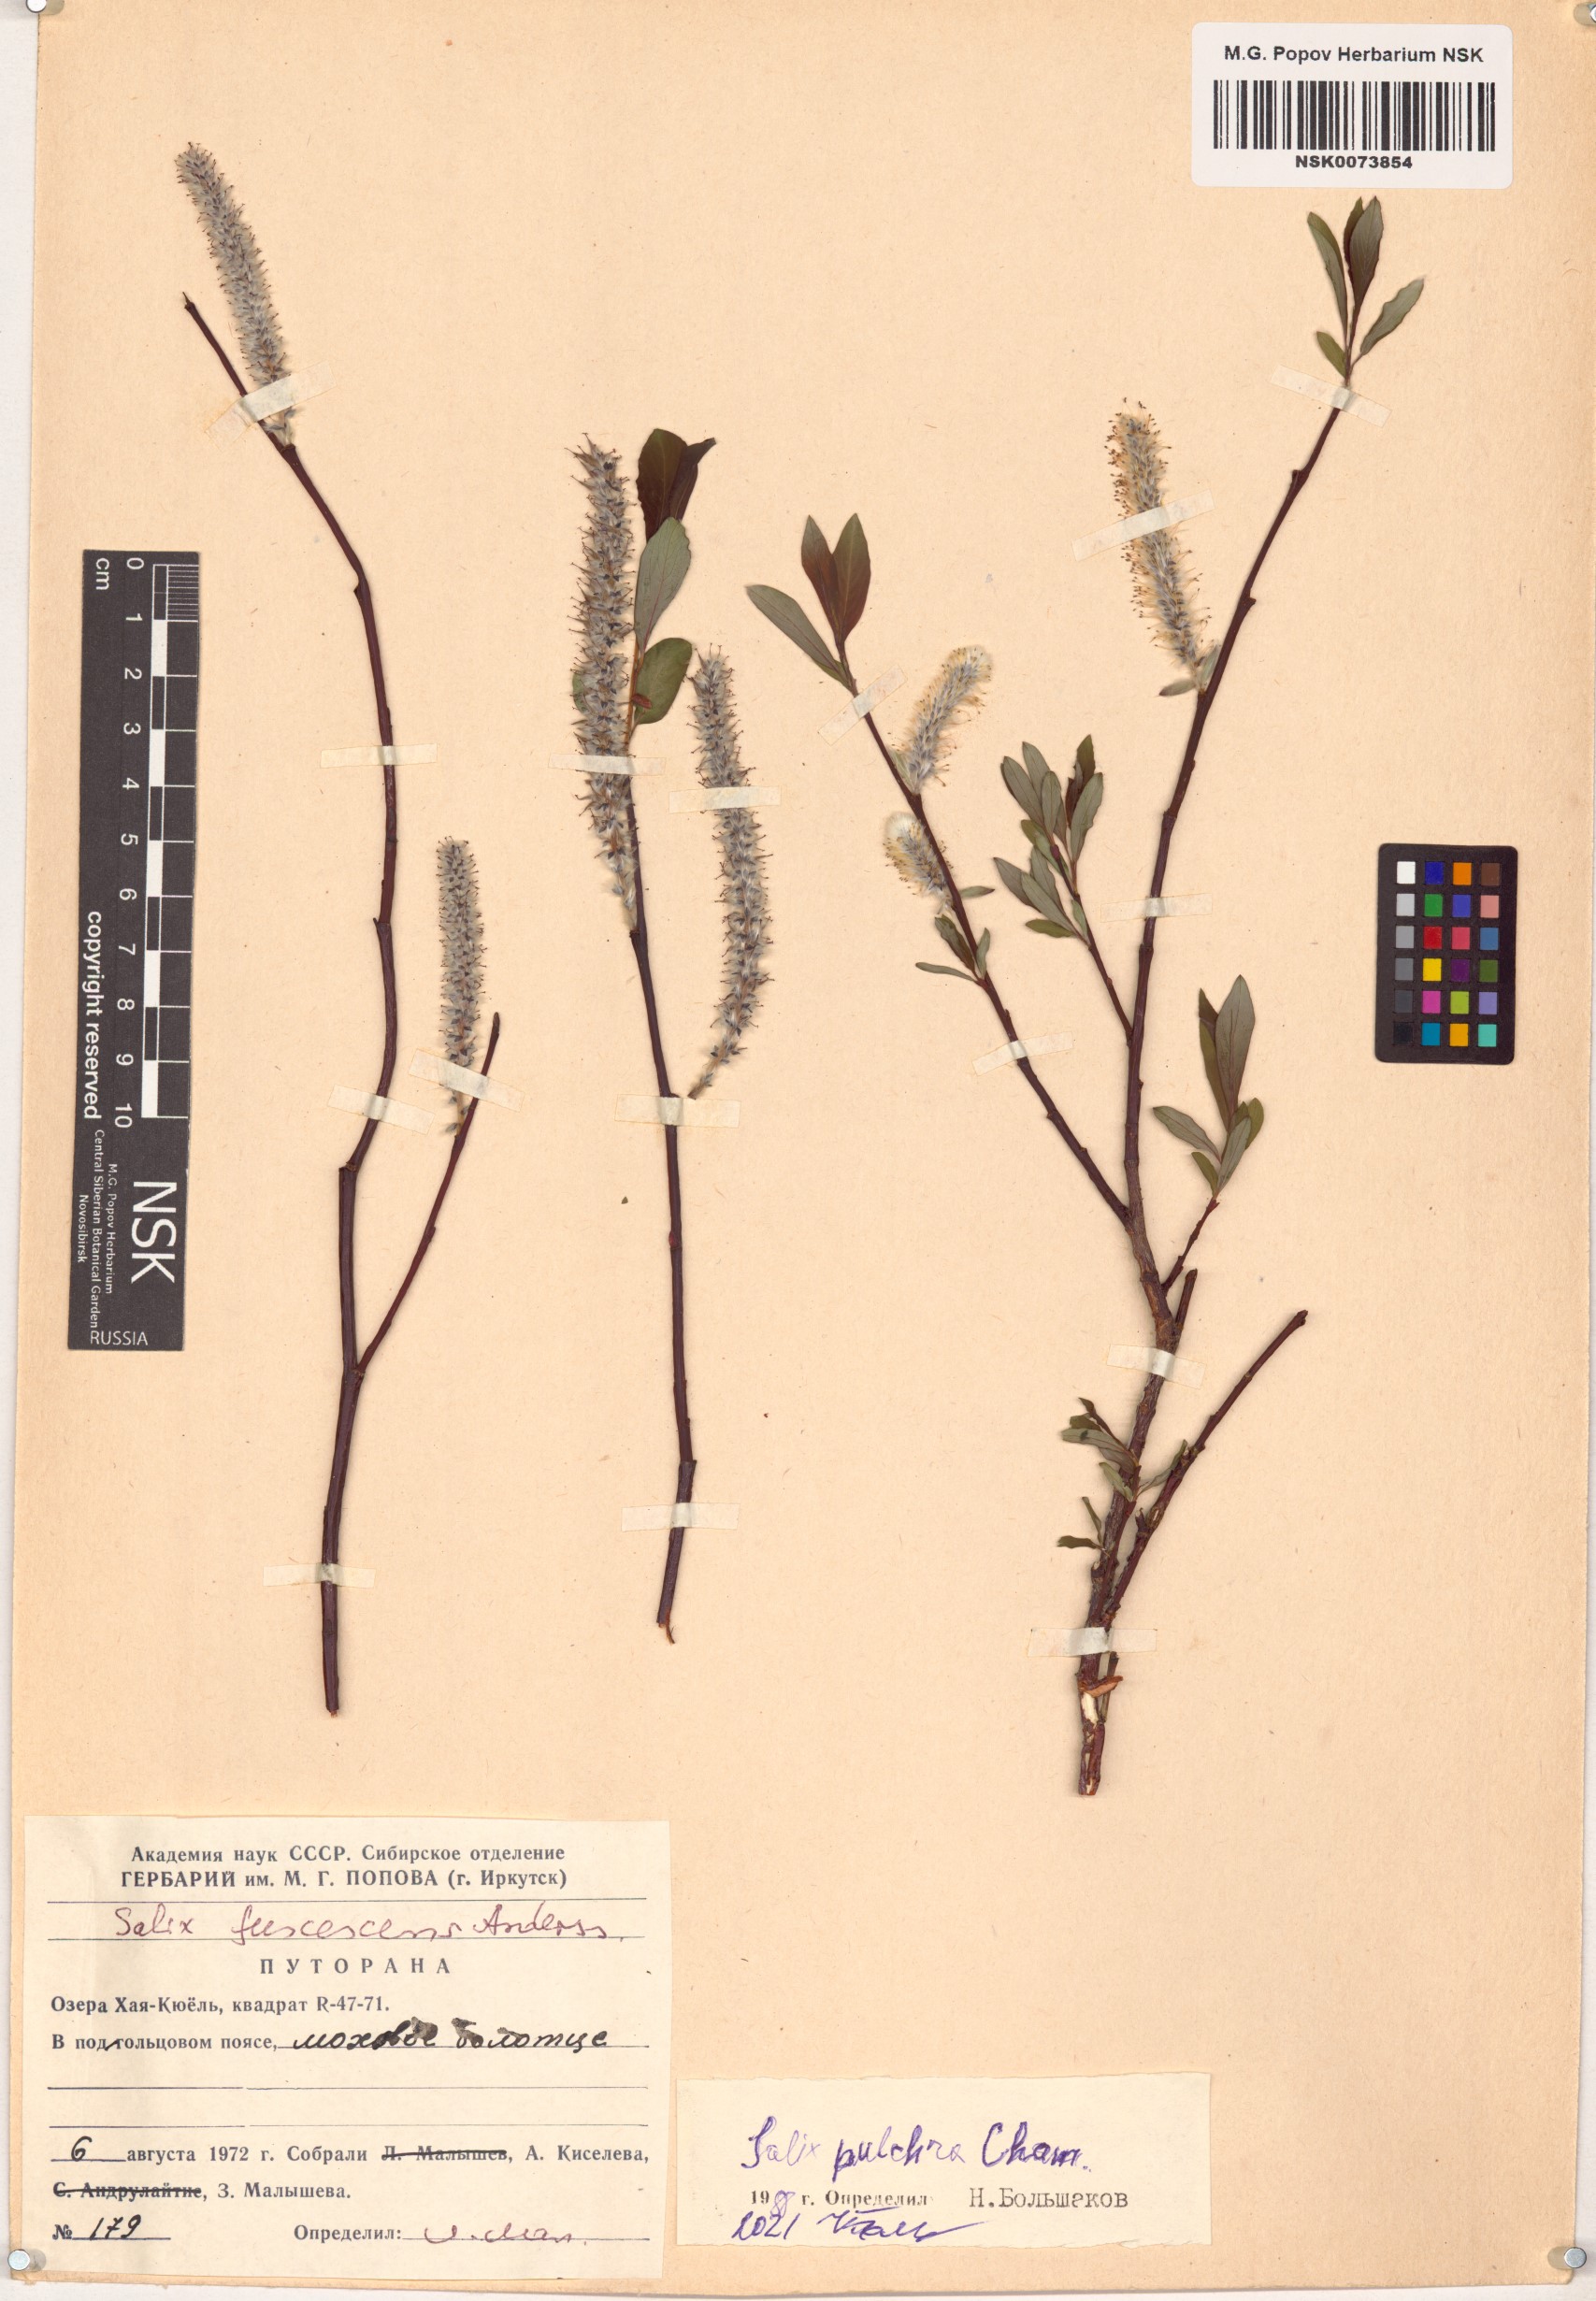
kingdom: Plantae
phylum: Tracheophyta
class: Magnoliopsida
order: Malpighiales
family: Salicaceae
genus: Salix
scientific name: Salix pulchra
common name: Diamond-leaved willow
